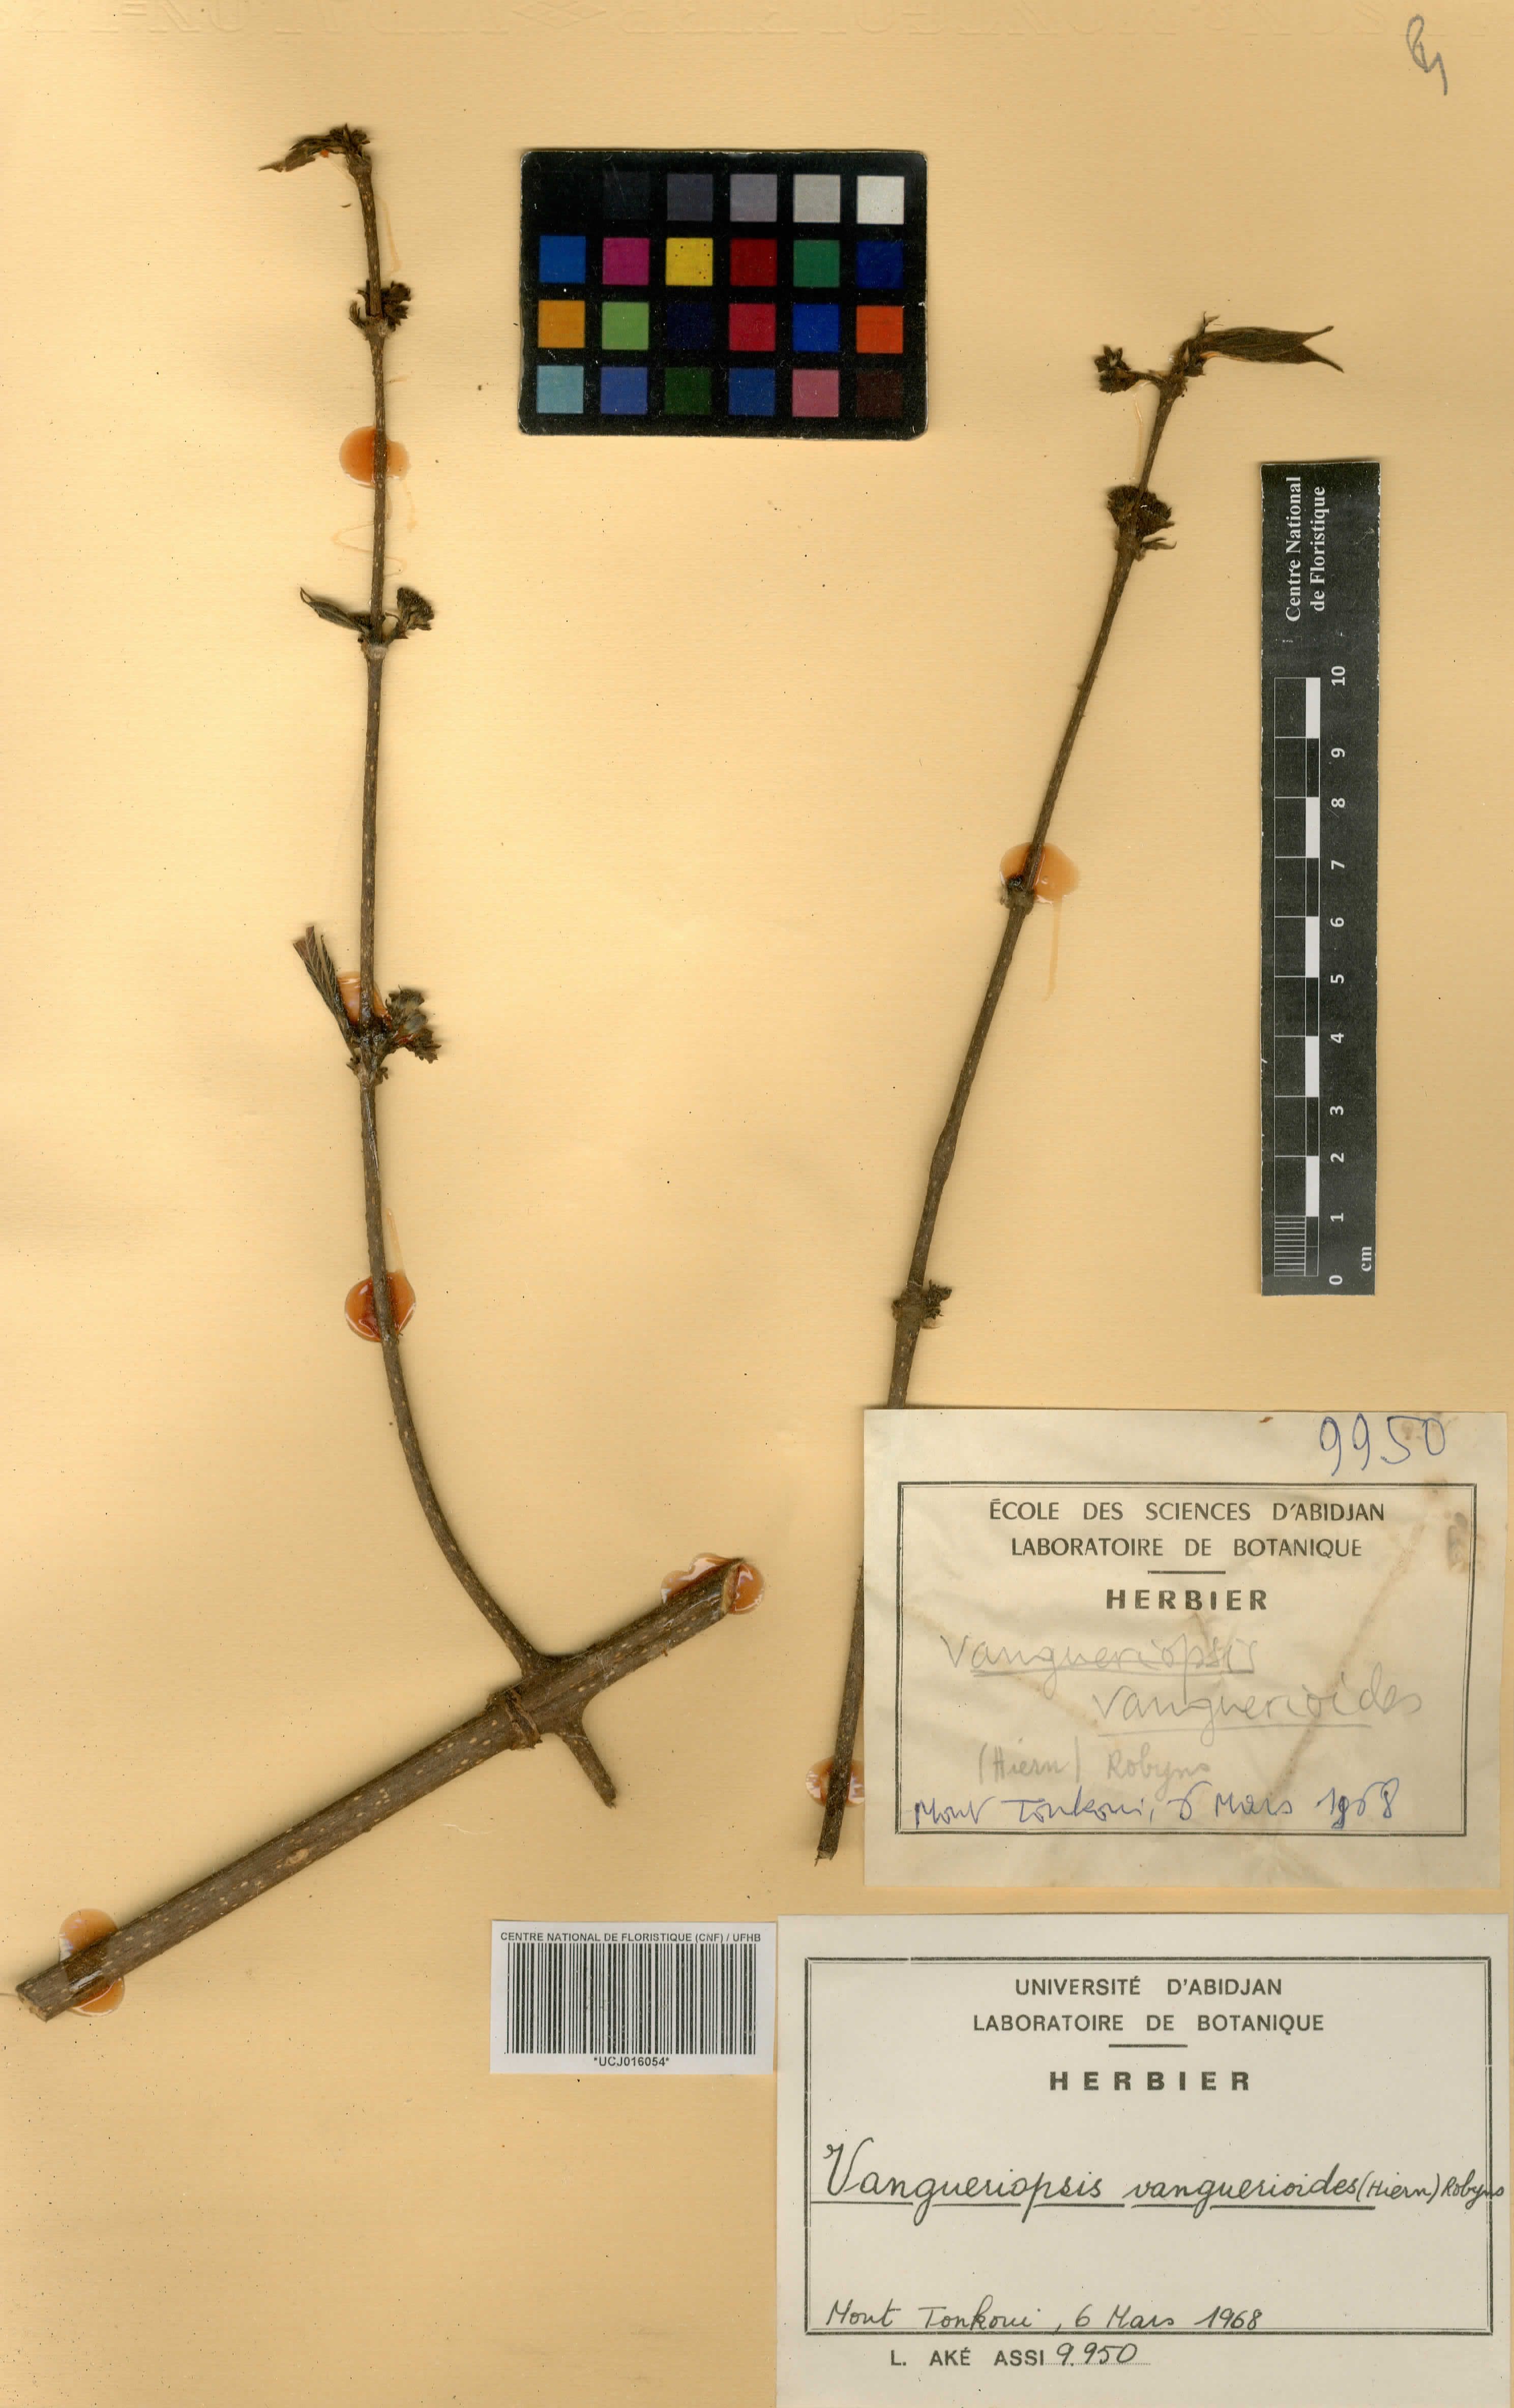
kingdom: Plantae
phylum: Tracheophyta
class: Magnoliopsida
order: Gentianales
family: Rubiaceae
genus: Vangueriella
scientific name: Vangueriella vanguerioides
